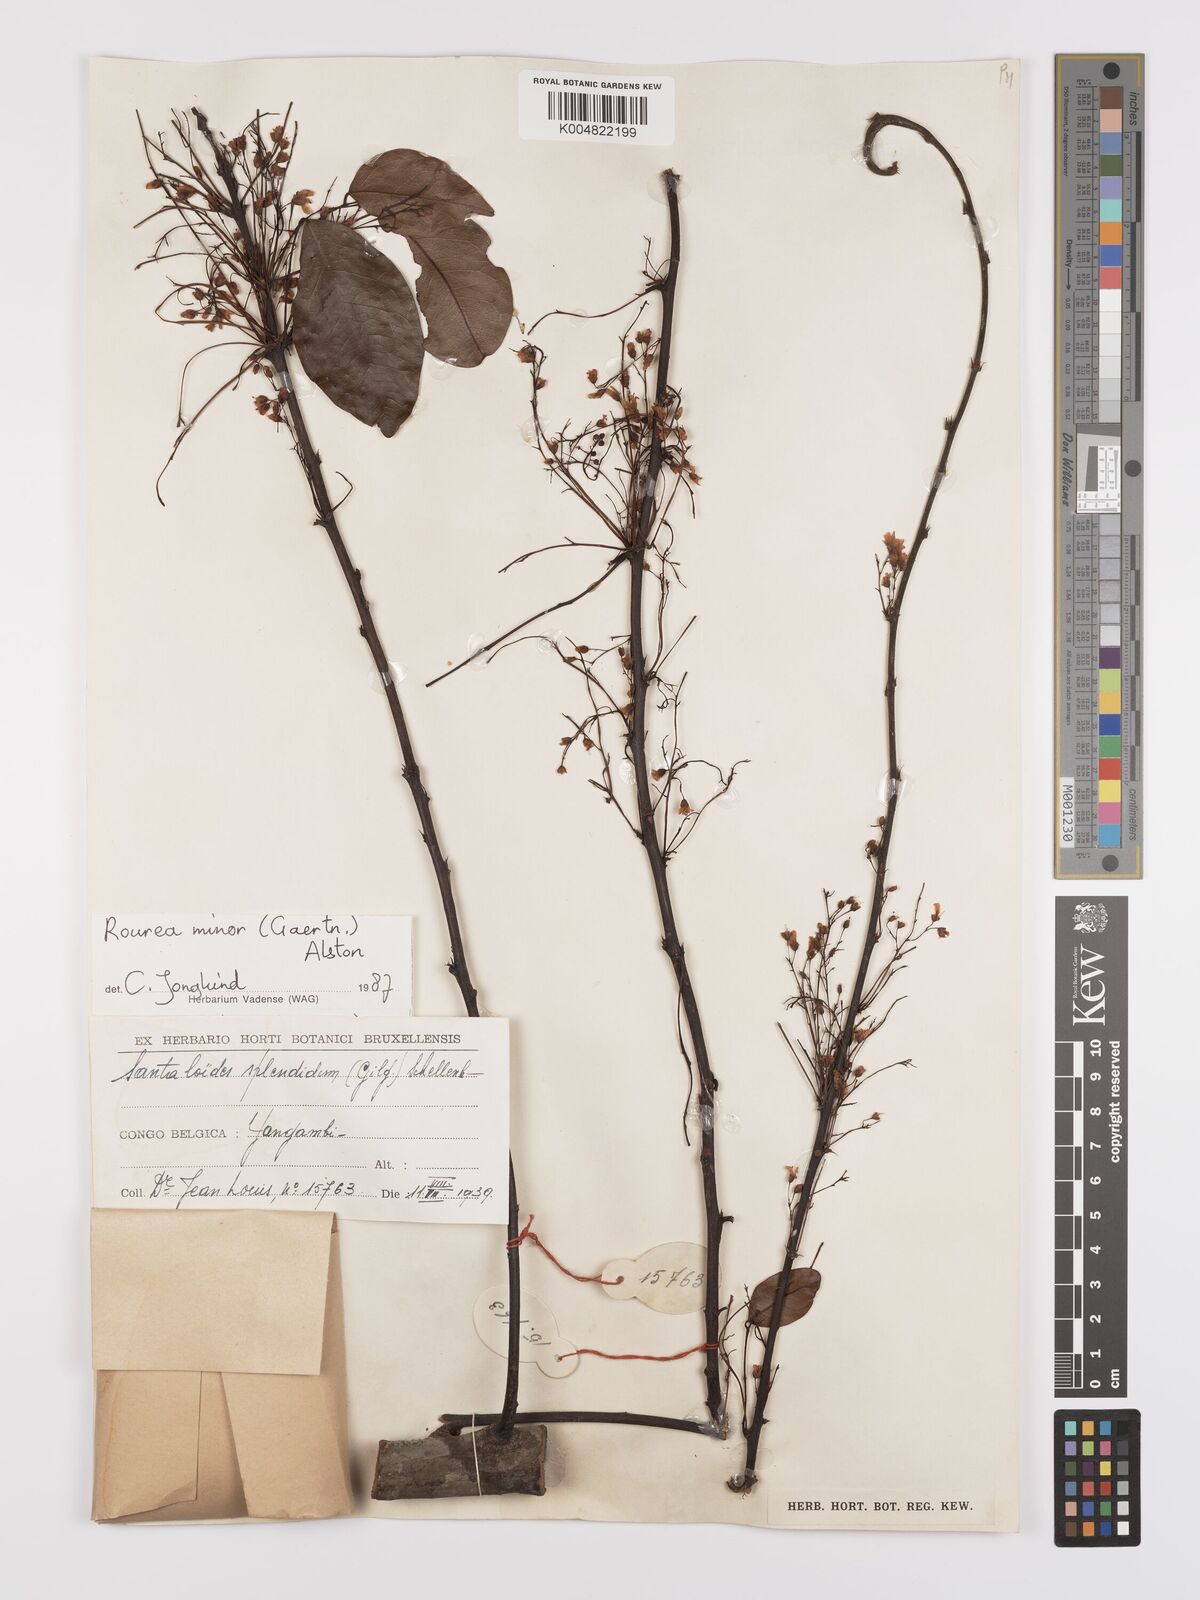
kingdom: Plantae
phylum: Tracheophyta
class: Magnoliopsida
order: Oxalidales
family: Connaraceae
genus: Rourea
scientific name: Rourea minor
